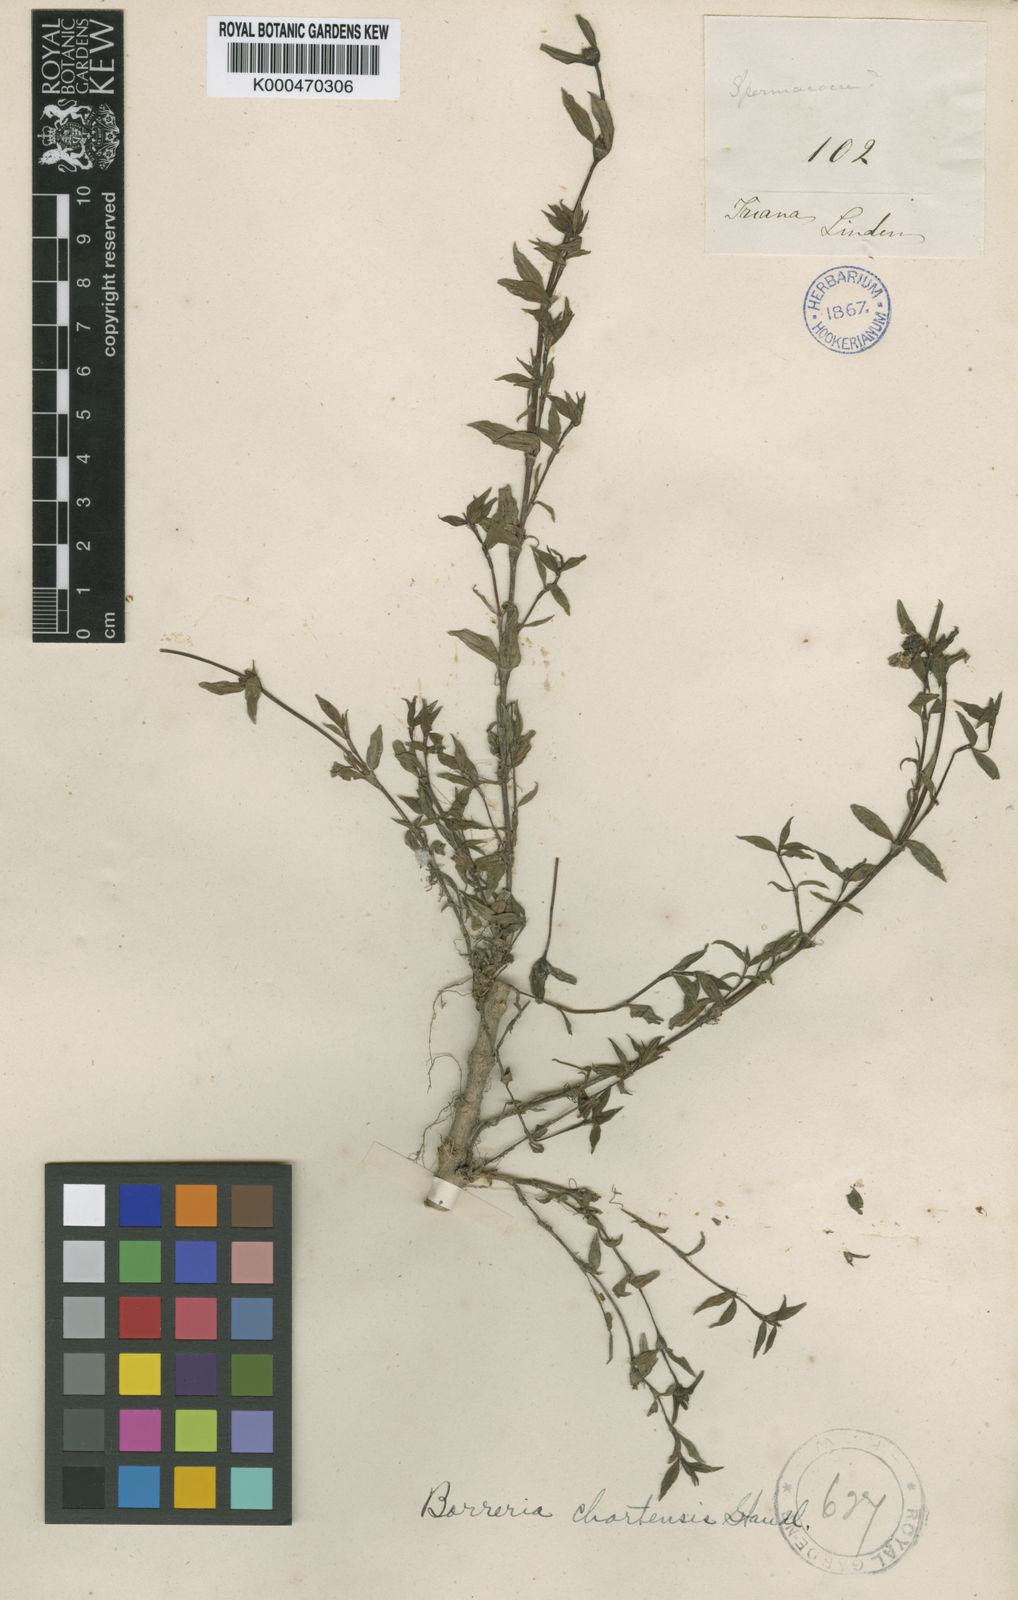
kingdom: Plantae
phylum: Tracheophyta
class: Magnoliopsida
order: Gentianales
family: Rubiaceae
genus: Spermacoce
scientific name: Spermacoce chartensis
